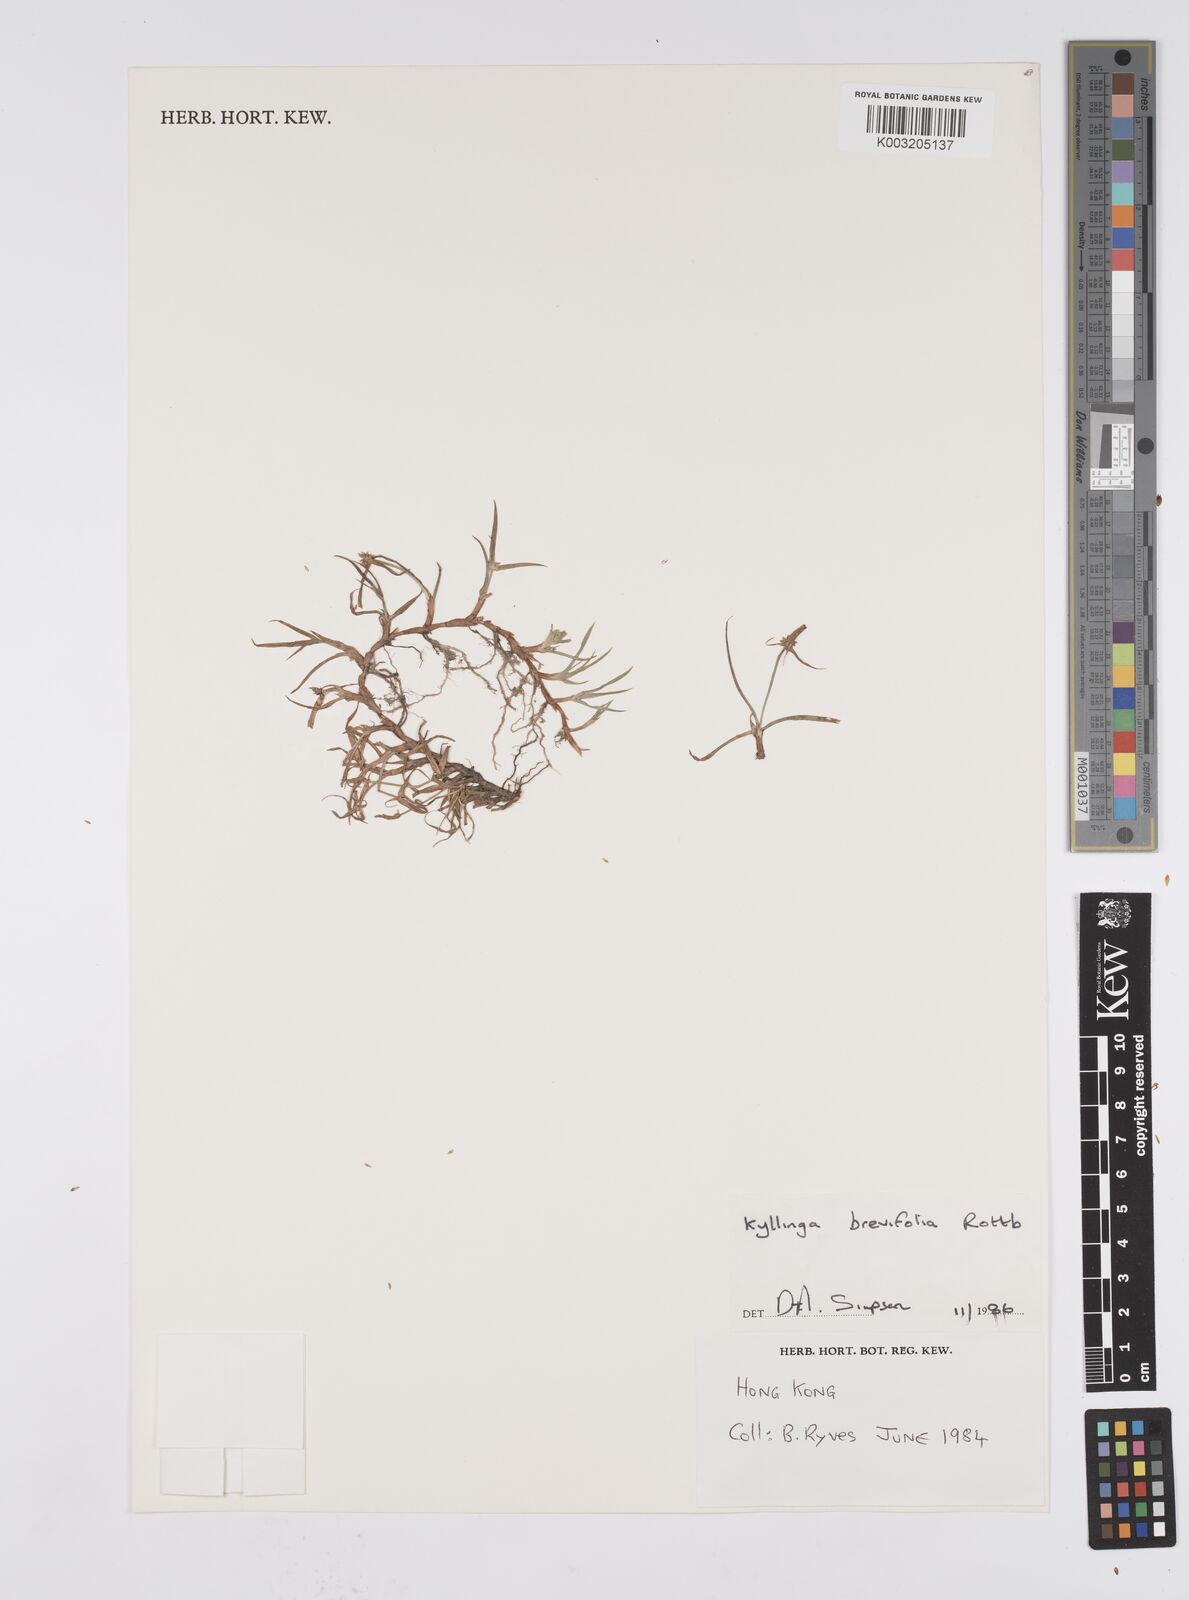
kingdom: Plantae
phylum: Tracheophyta
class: Liliopsida
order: Poales
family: Cyperaceae
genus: Cyperus
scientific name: Cyperus brevifolius
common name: Globe kyllinga
